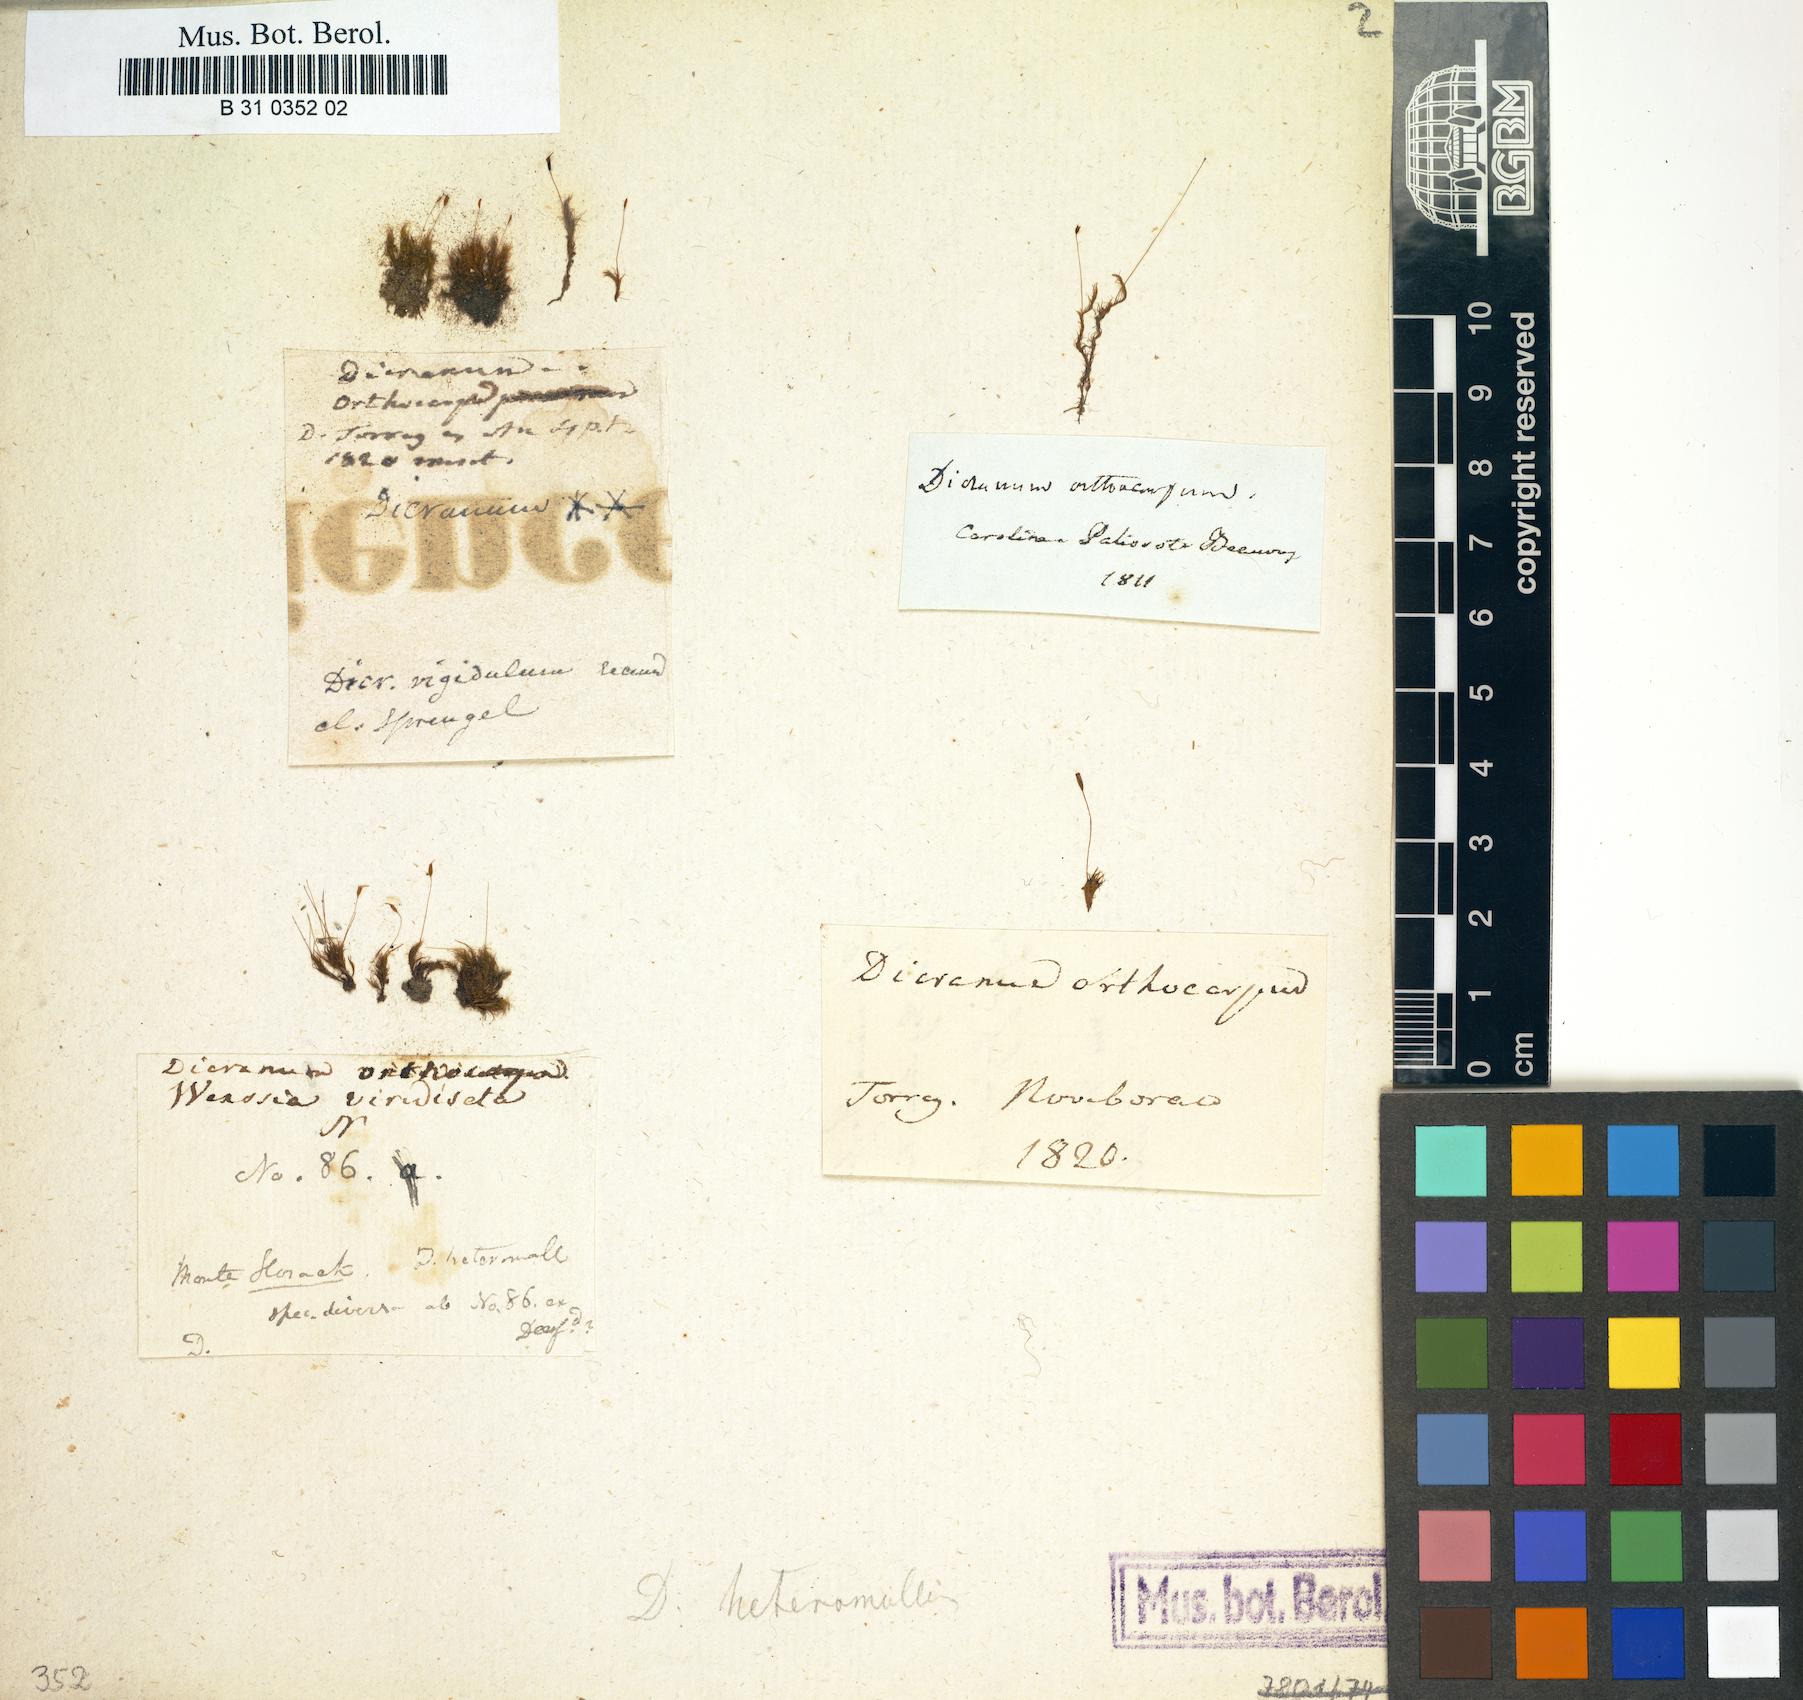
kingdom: Plantae
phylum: Bryophyta
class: Bryopsida
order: Dicranales
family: Dicranellaceae
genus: Dicranella
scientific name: Dicranella heteromalla
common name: Silky forklet moss
